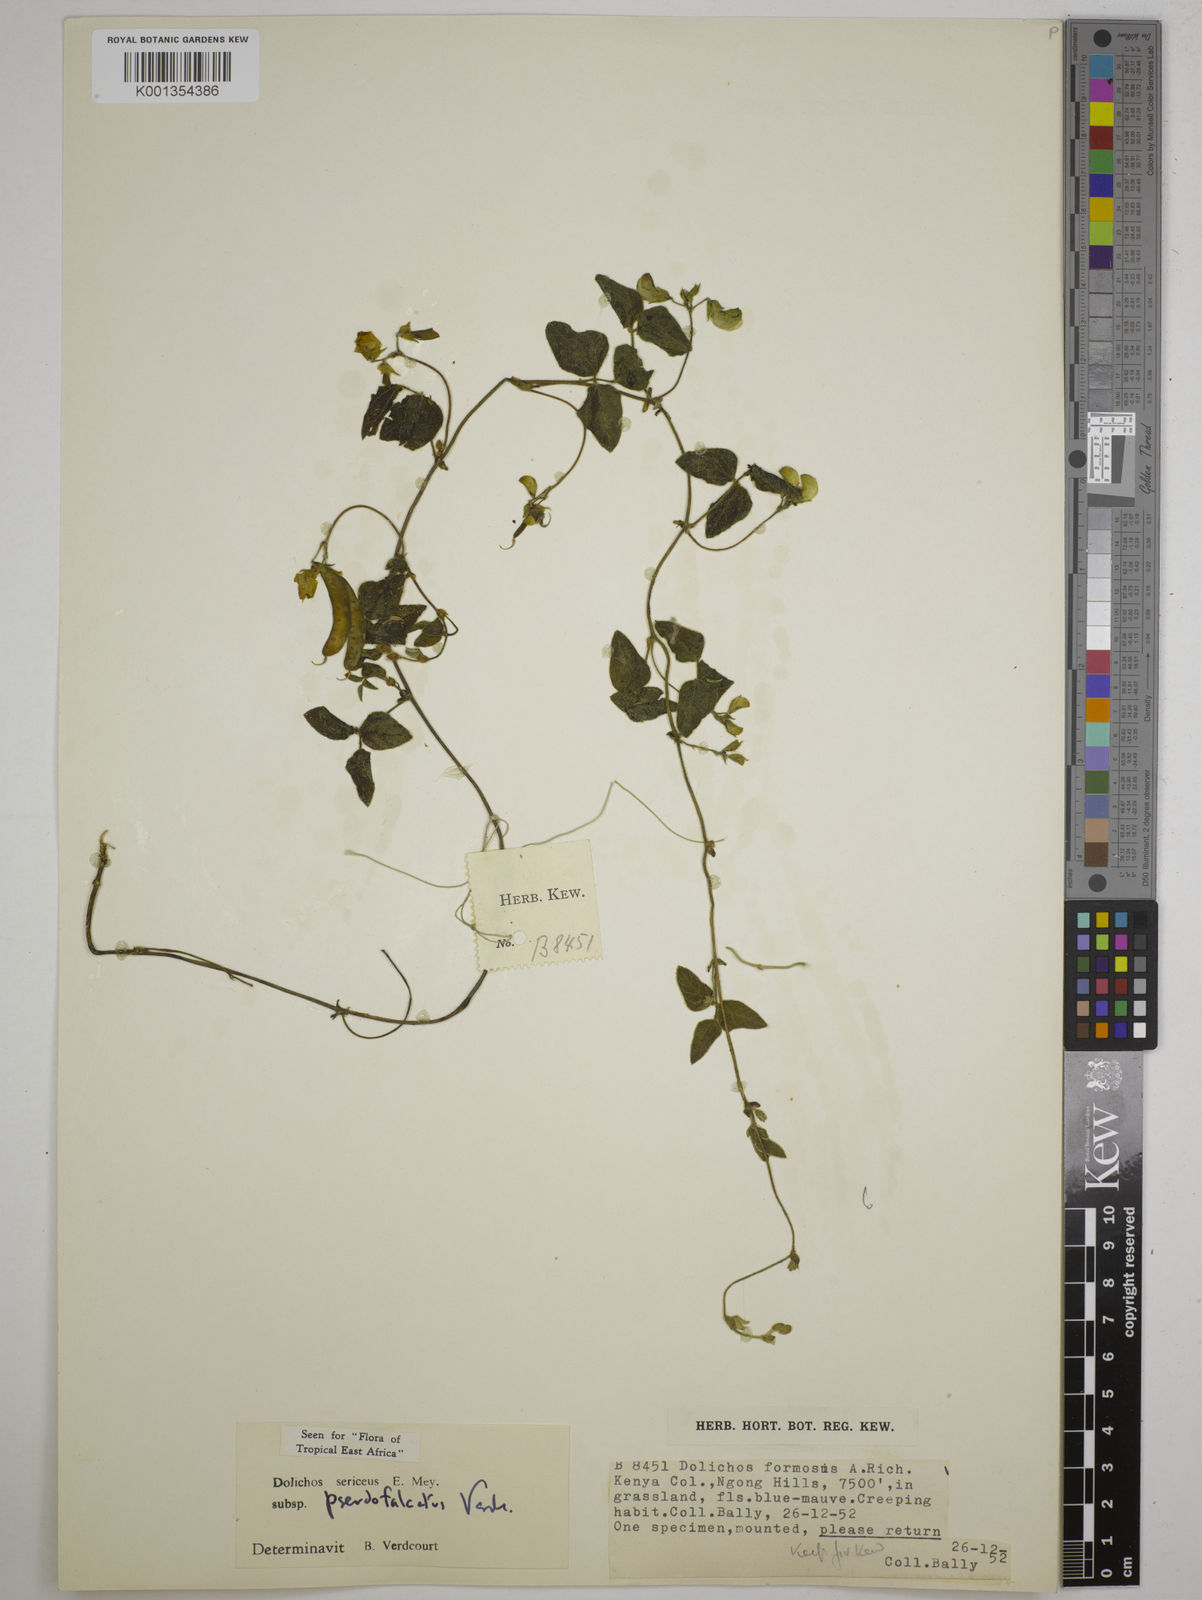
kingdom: Plantae
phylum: Tracheophyta
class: Magnoliopsida
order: Fabales
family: Fabaceae
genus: Dolichos
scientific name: Dolichos
